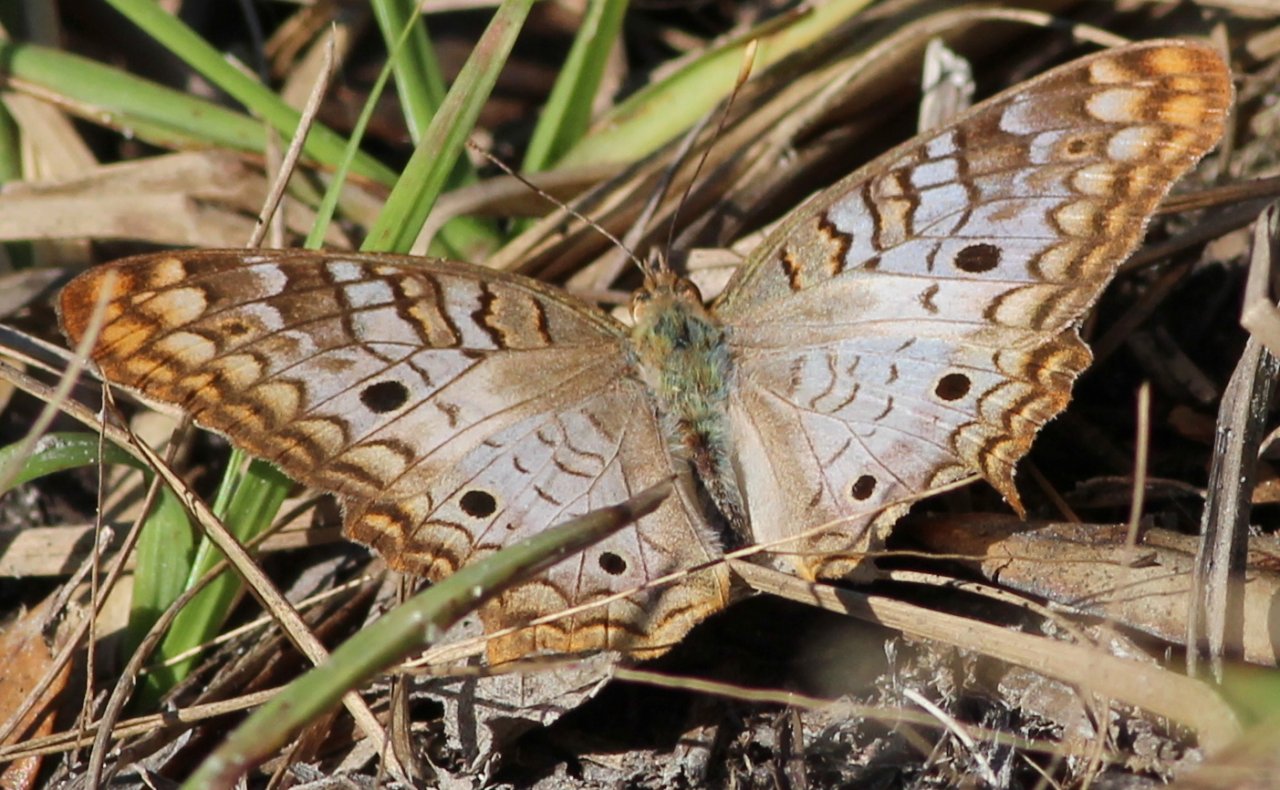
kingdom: Animalia
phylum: Arthropoda
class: Insecta
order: Lepidoptera
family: Nymphalidae
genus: Anartia
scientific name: Anartia jatrophae
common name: White Peacock
